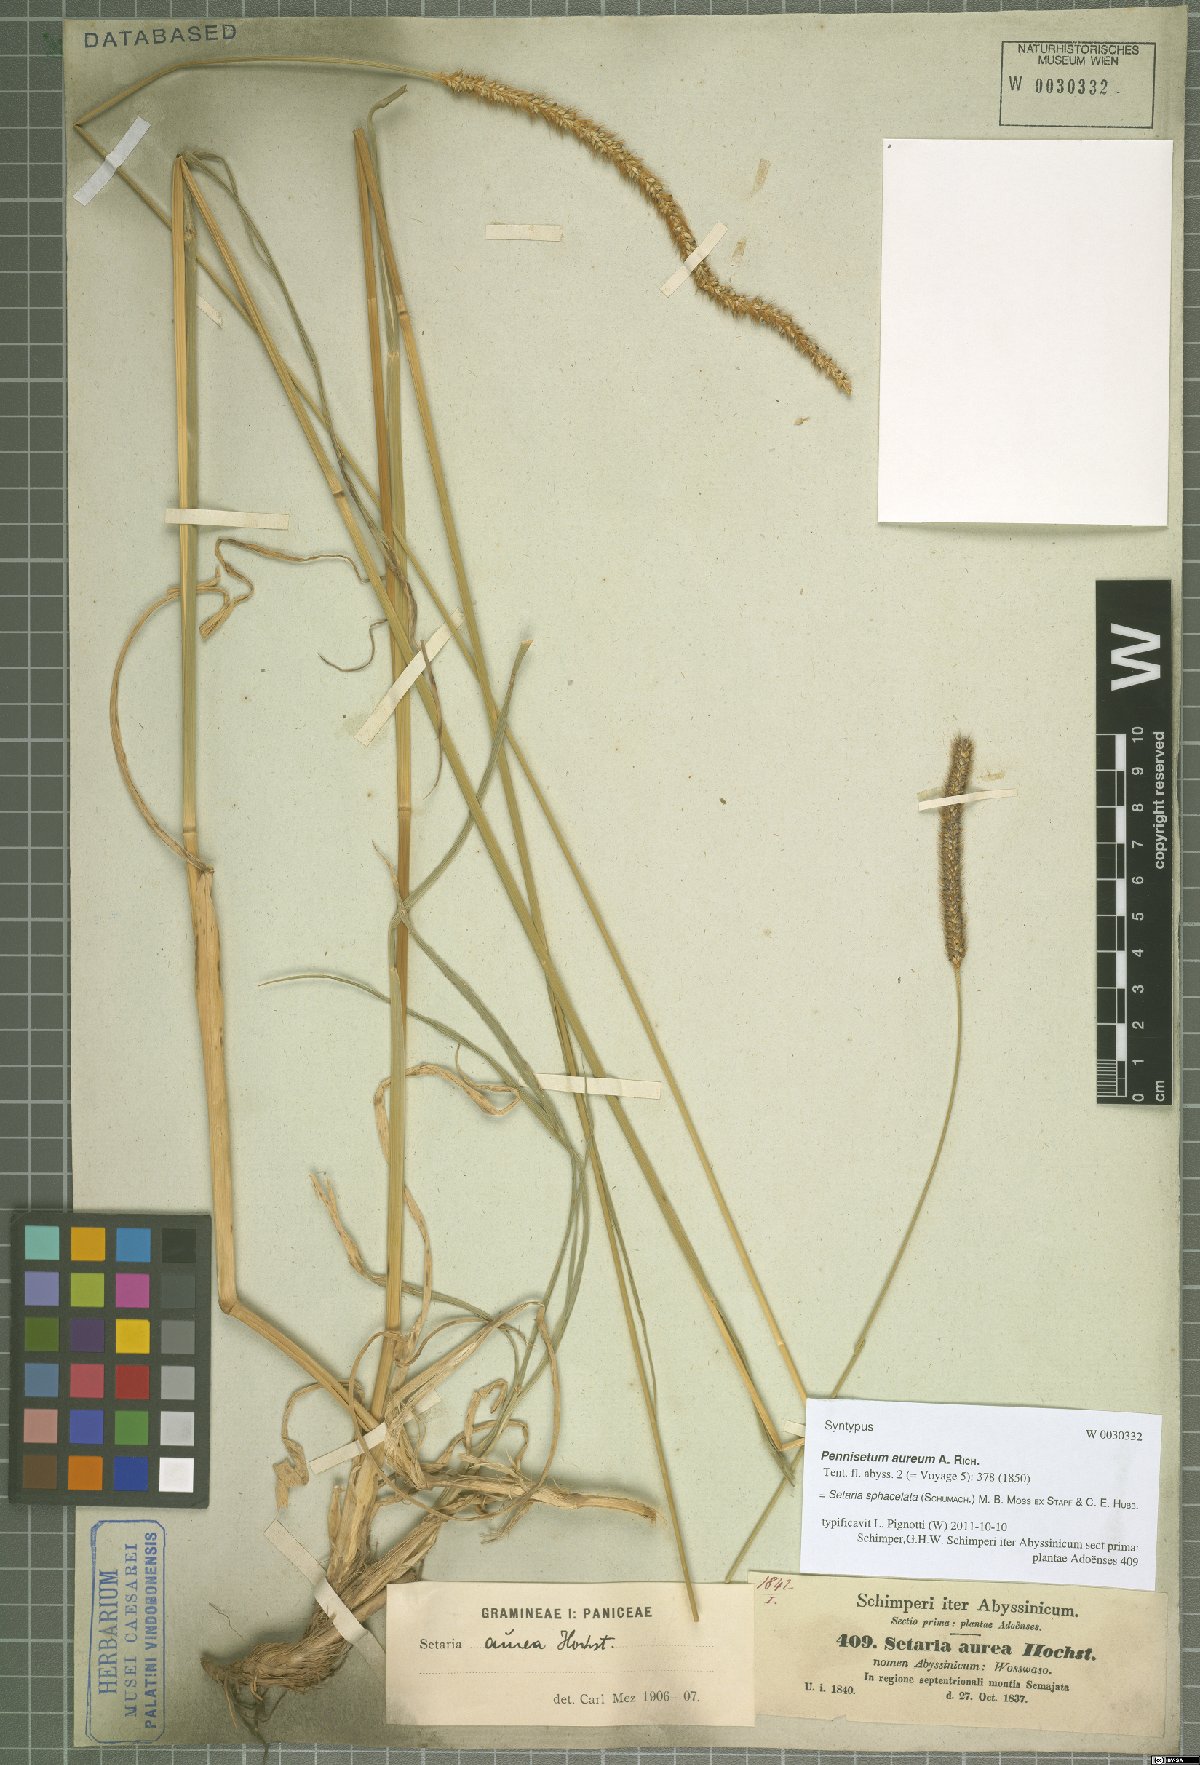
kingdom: Plantae
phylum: Tracheophyta
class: Liliopsida
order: Poales
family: Poaceae
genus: Setaria
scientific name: Setaria sphacelata
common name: African bristlegrass
